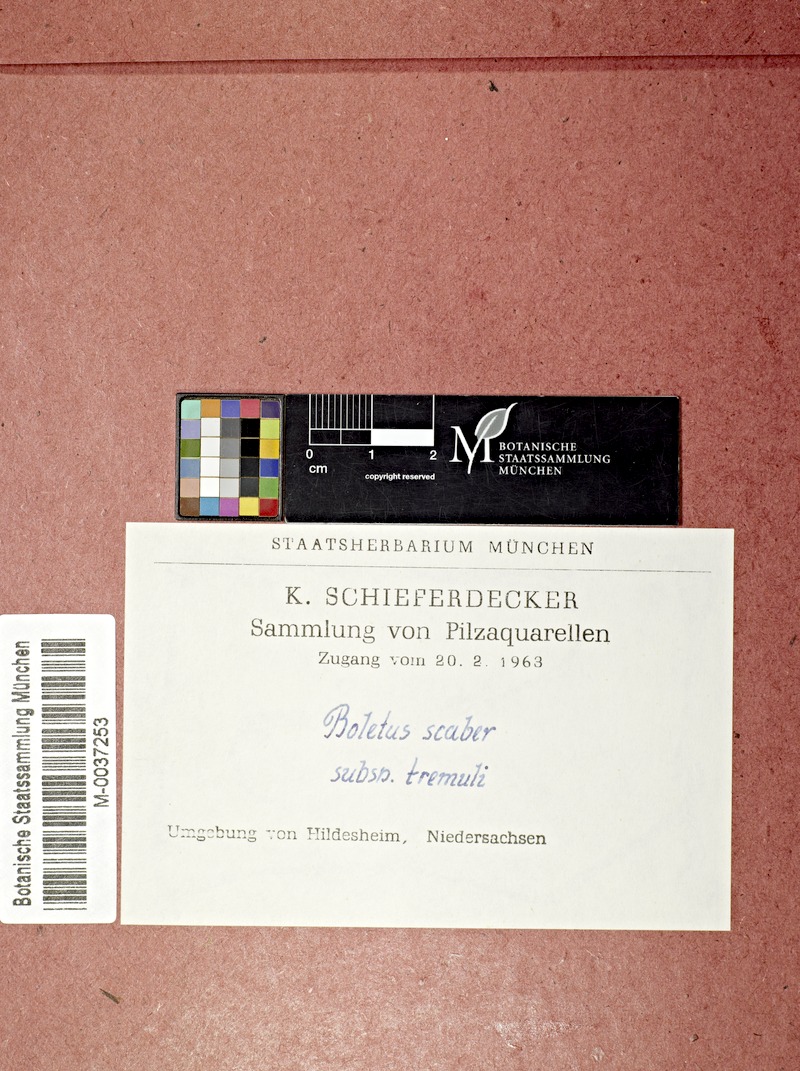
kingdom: Fungi
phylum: Basidiomycota
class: Agaricomycetes
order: Boletales
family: Boletaceae
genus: Leccinum
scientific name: Leccinum scabrum
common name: Blushing bolete
